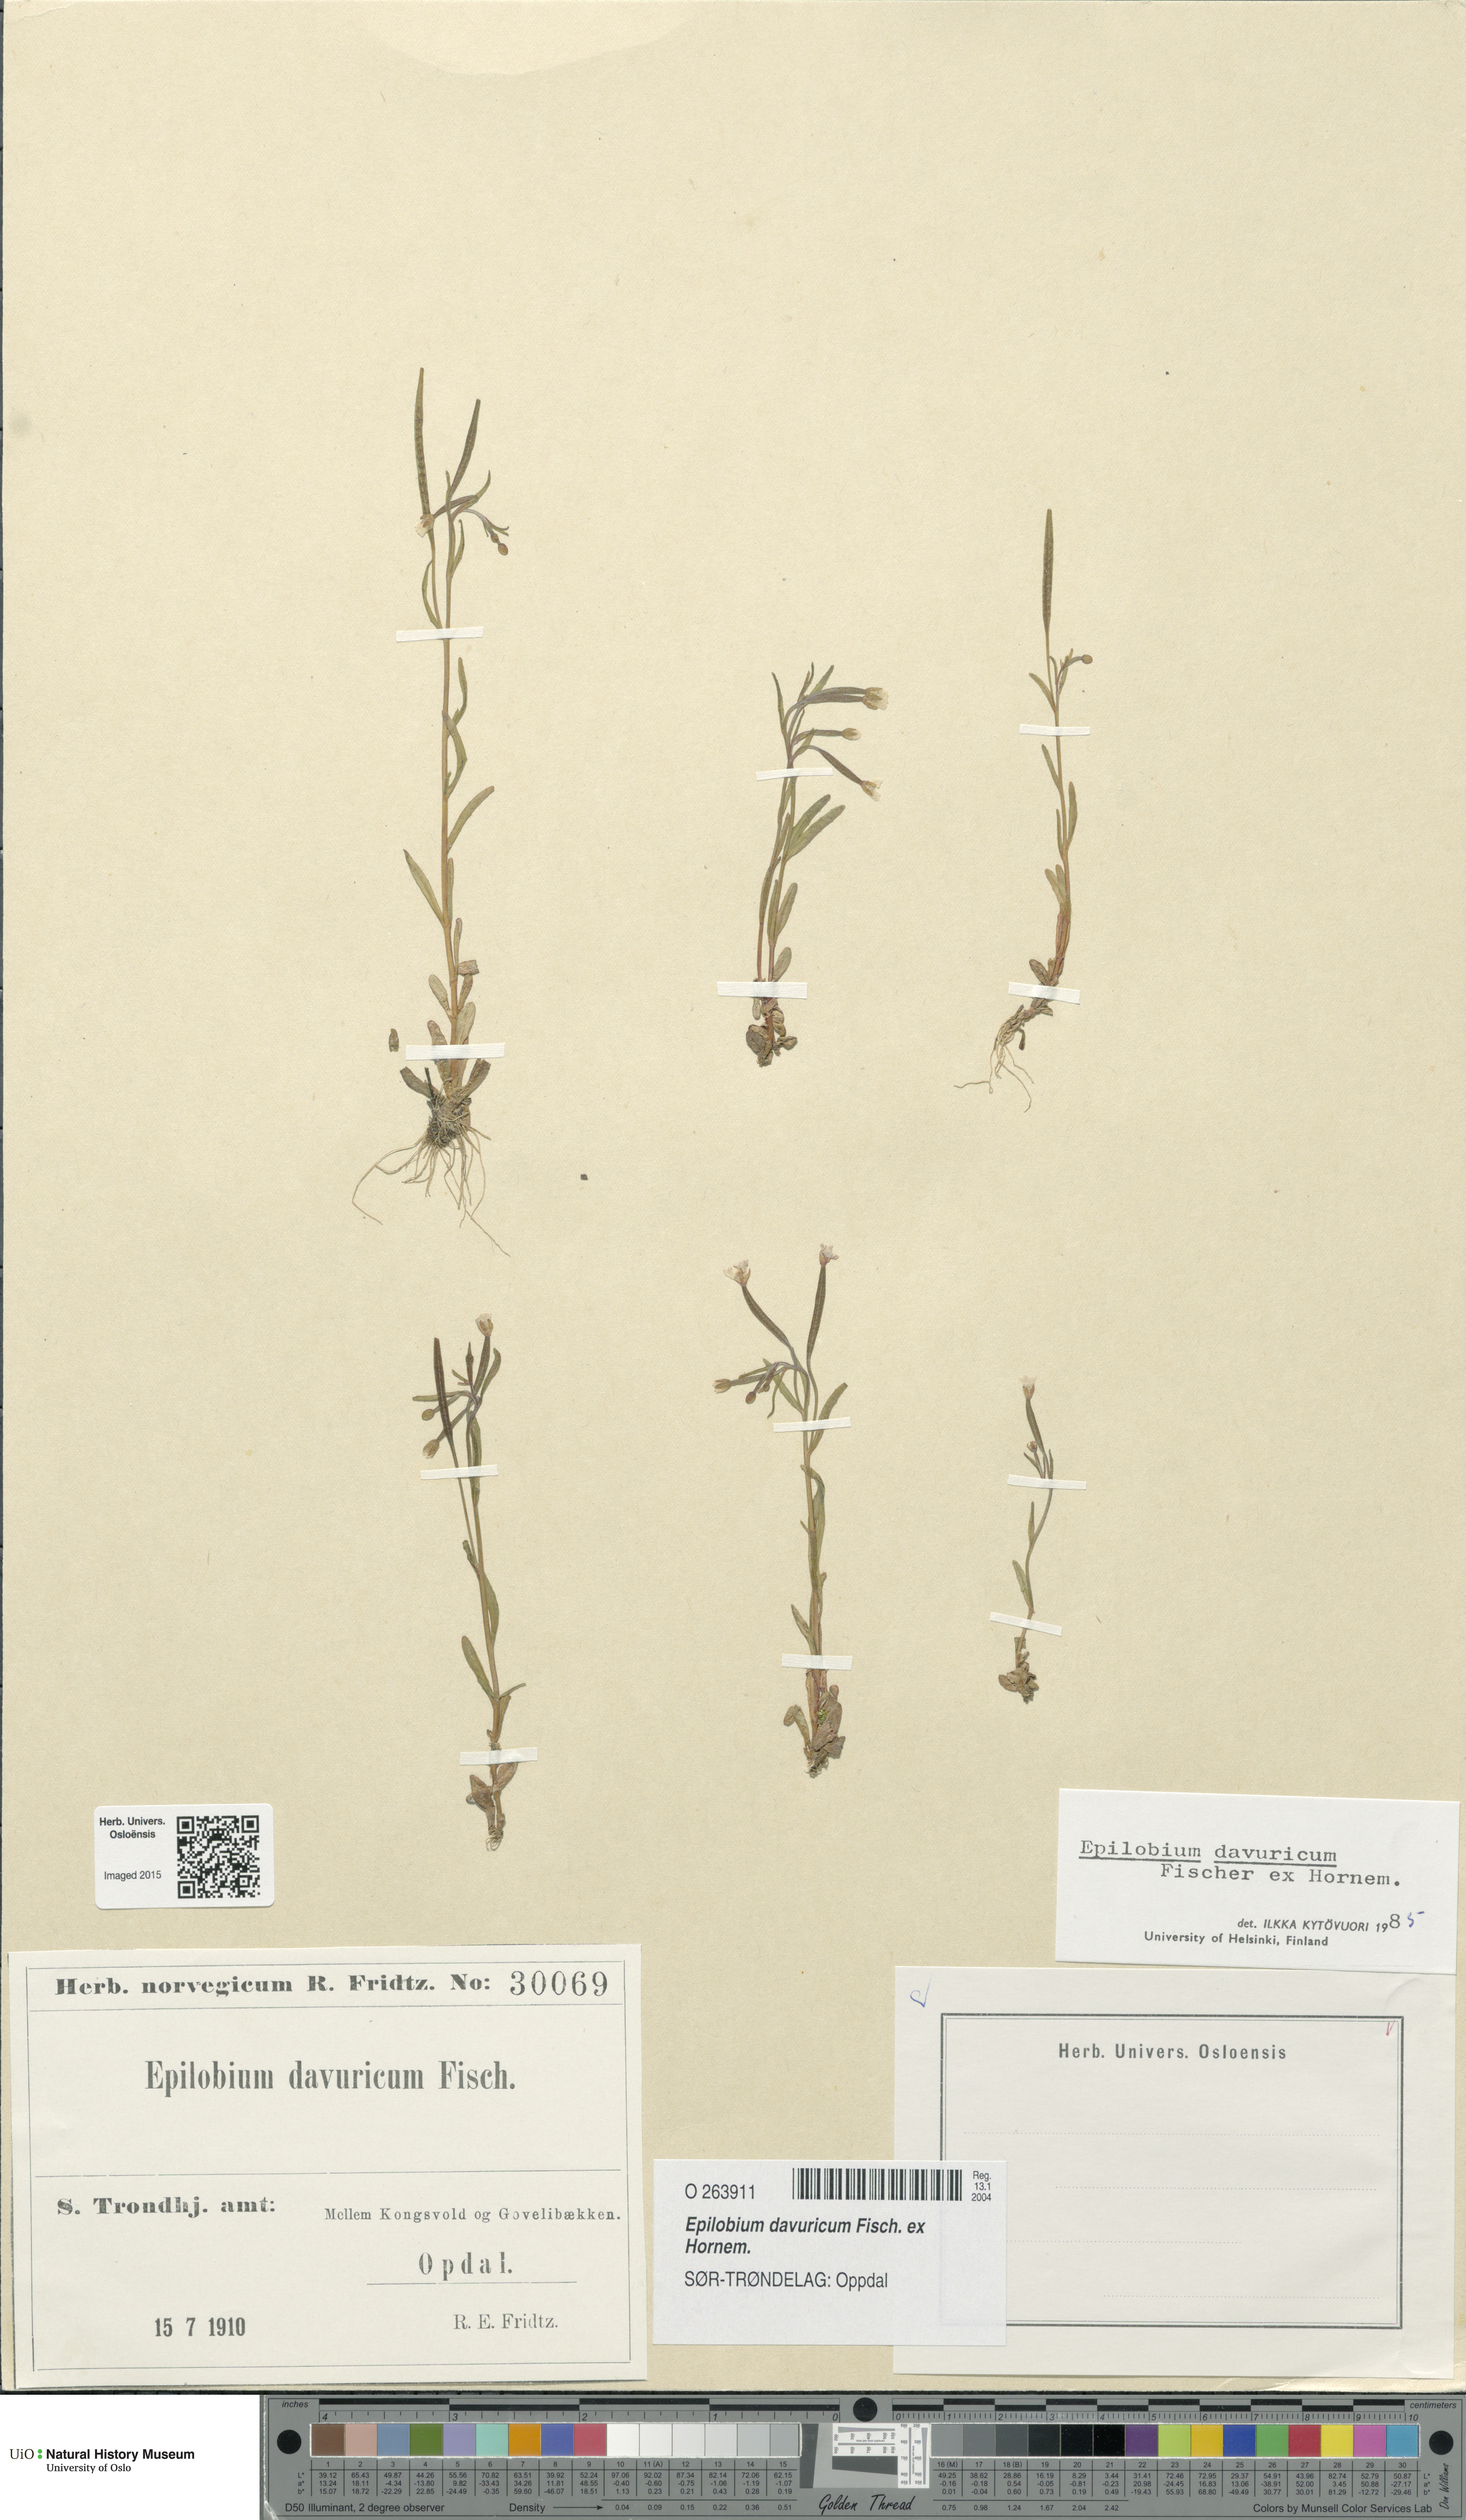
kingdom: Plantae
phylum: Tracheophyta
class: Magnoliopsida
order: Myrtales
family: Onagraceae
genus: Epilobium
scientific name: Epilobium davuricum
